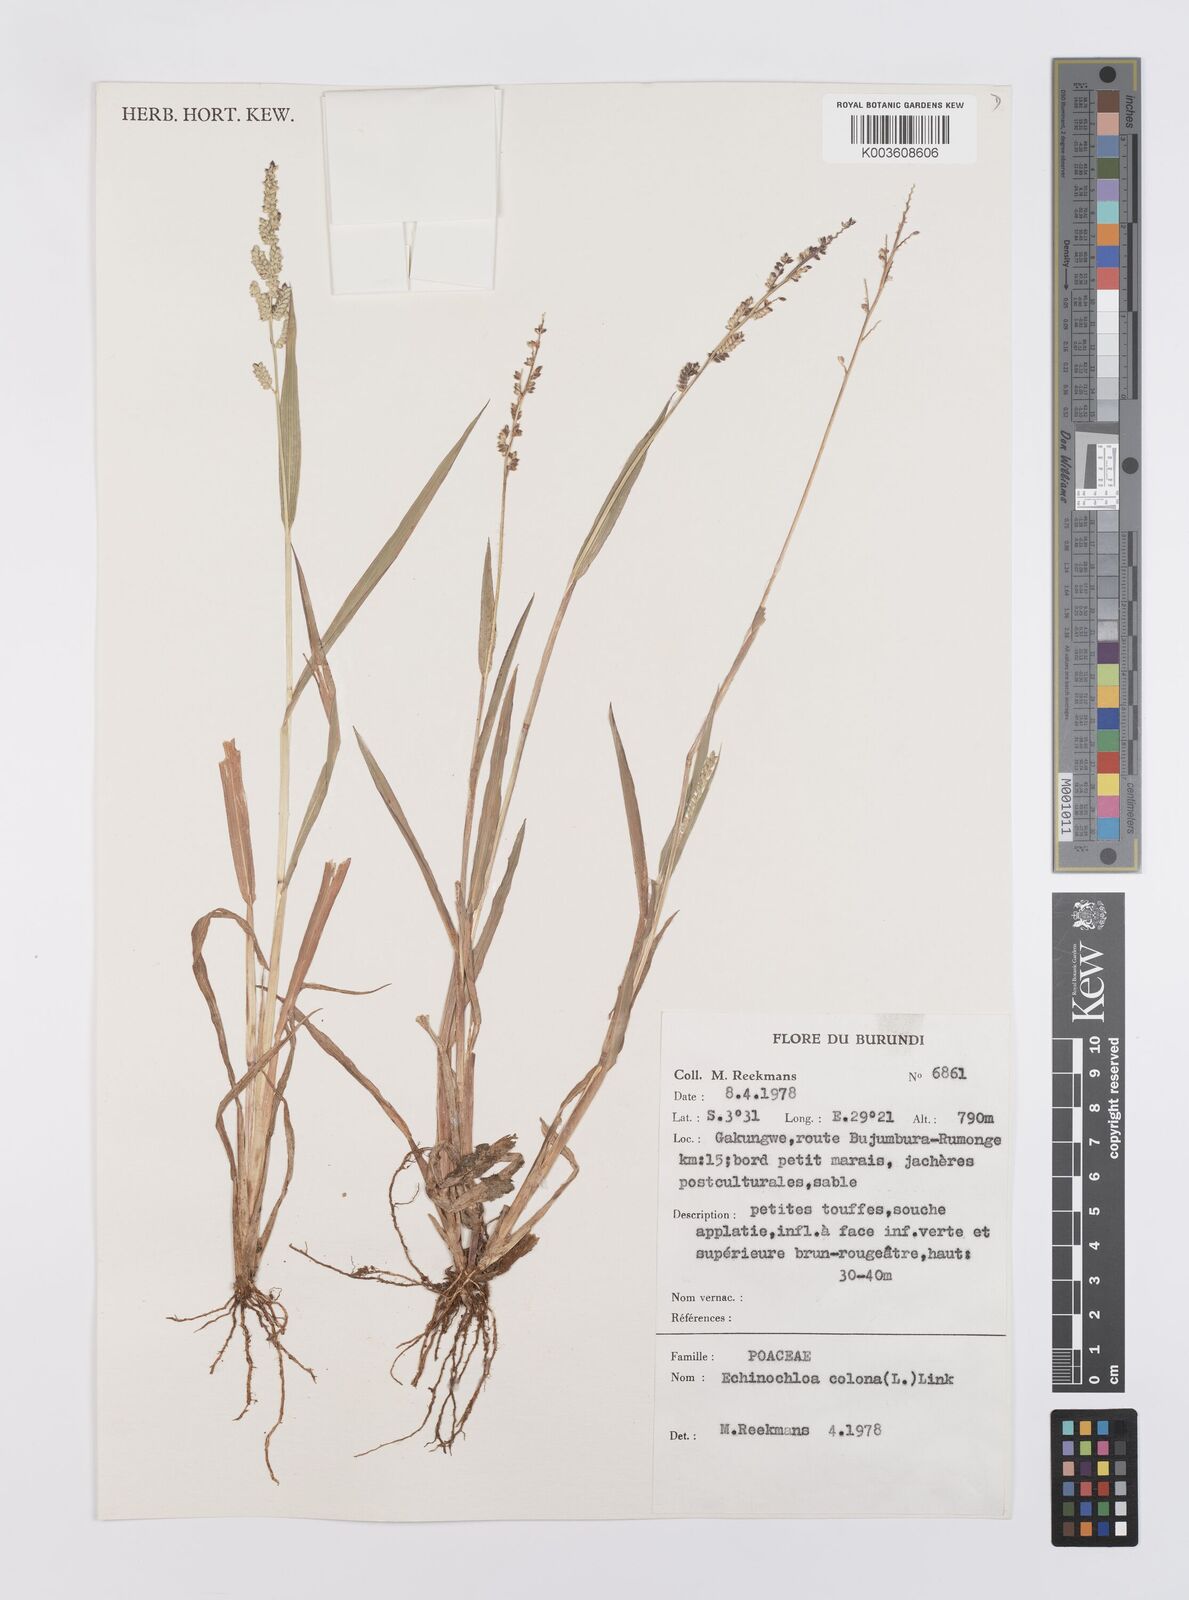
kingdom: Plantae
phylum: Tracheophyta
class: Liliopsida
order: Poales
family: Poaceae
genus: Echinochloa
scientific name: Echinochloa colonum
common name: Jungle rice
